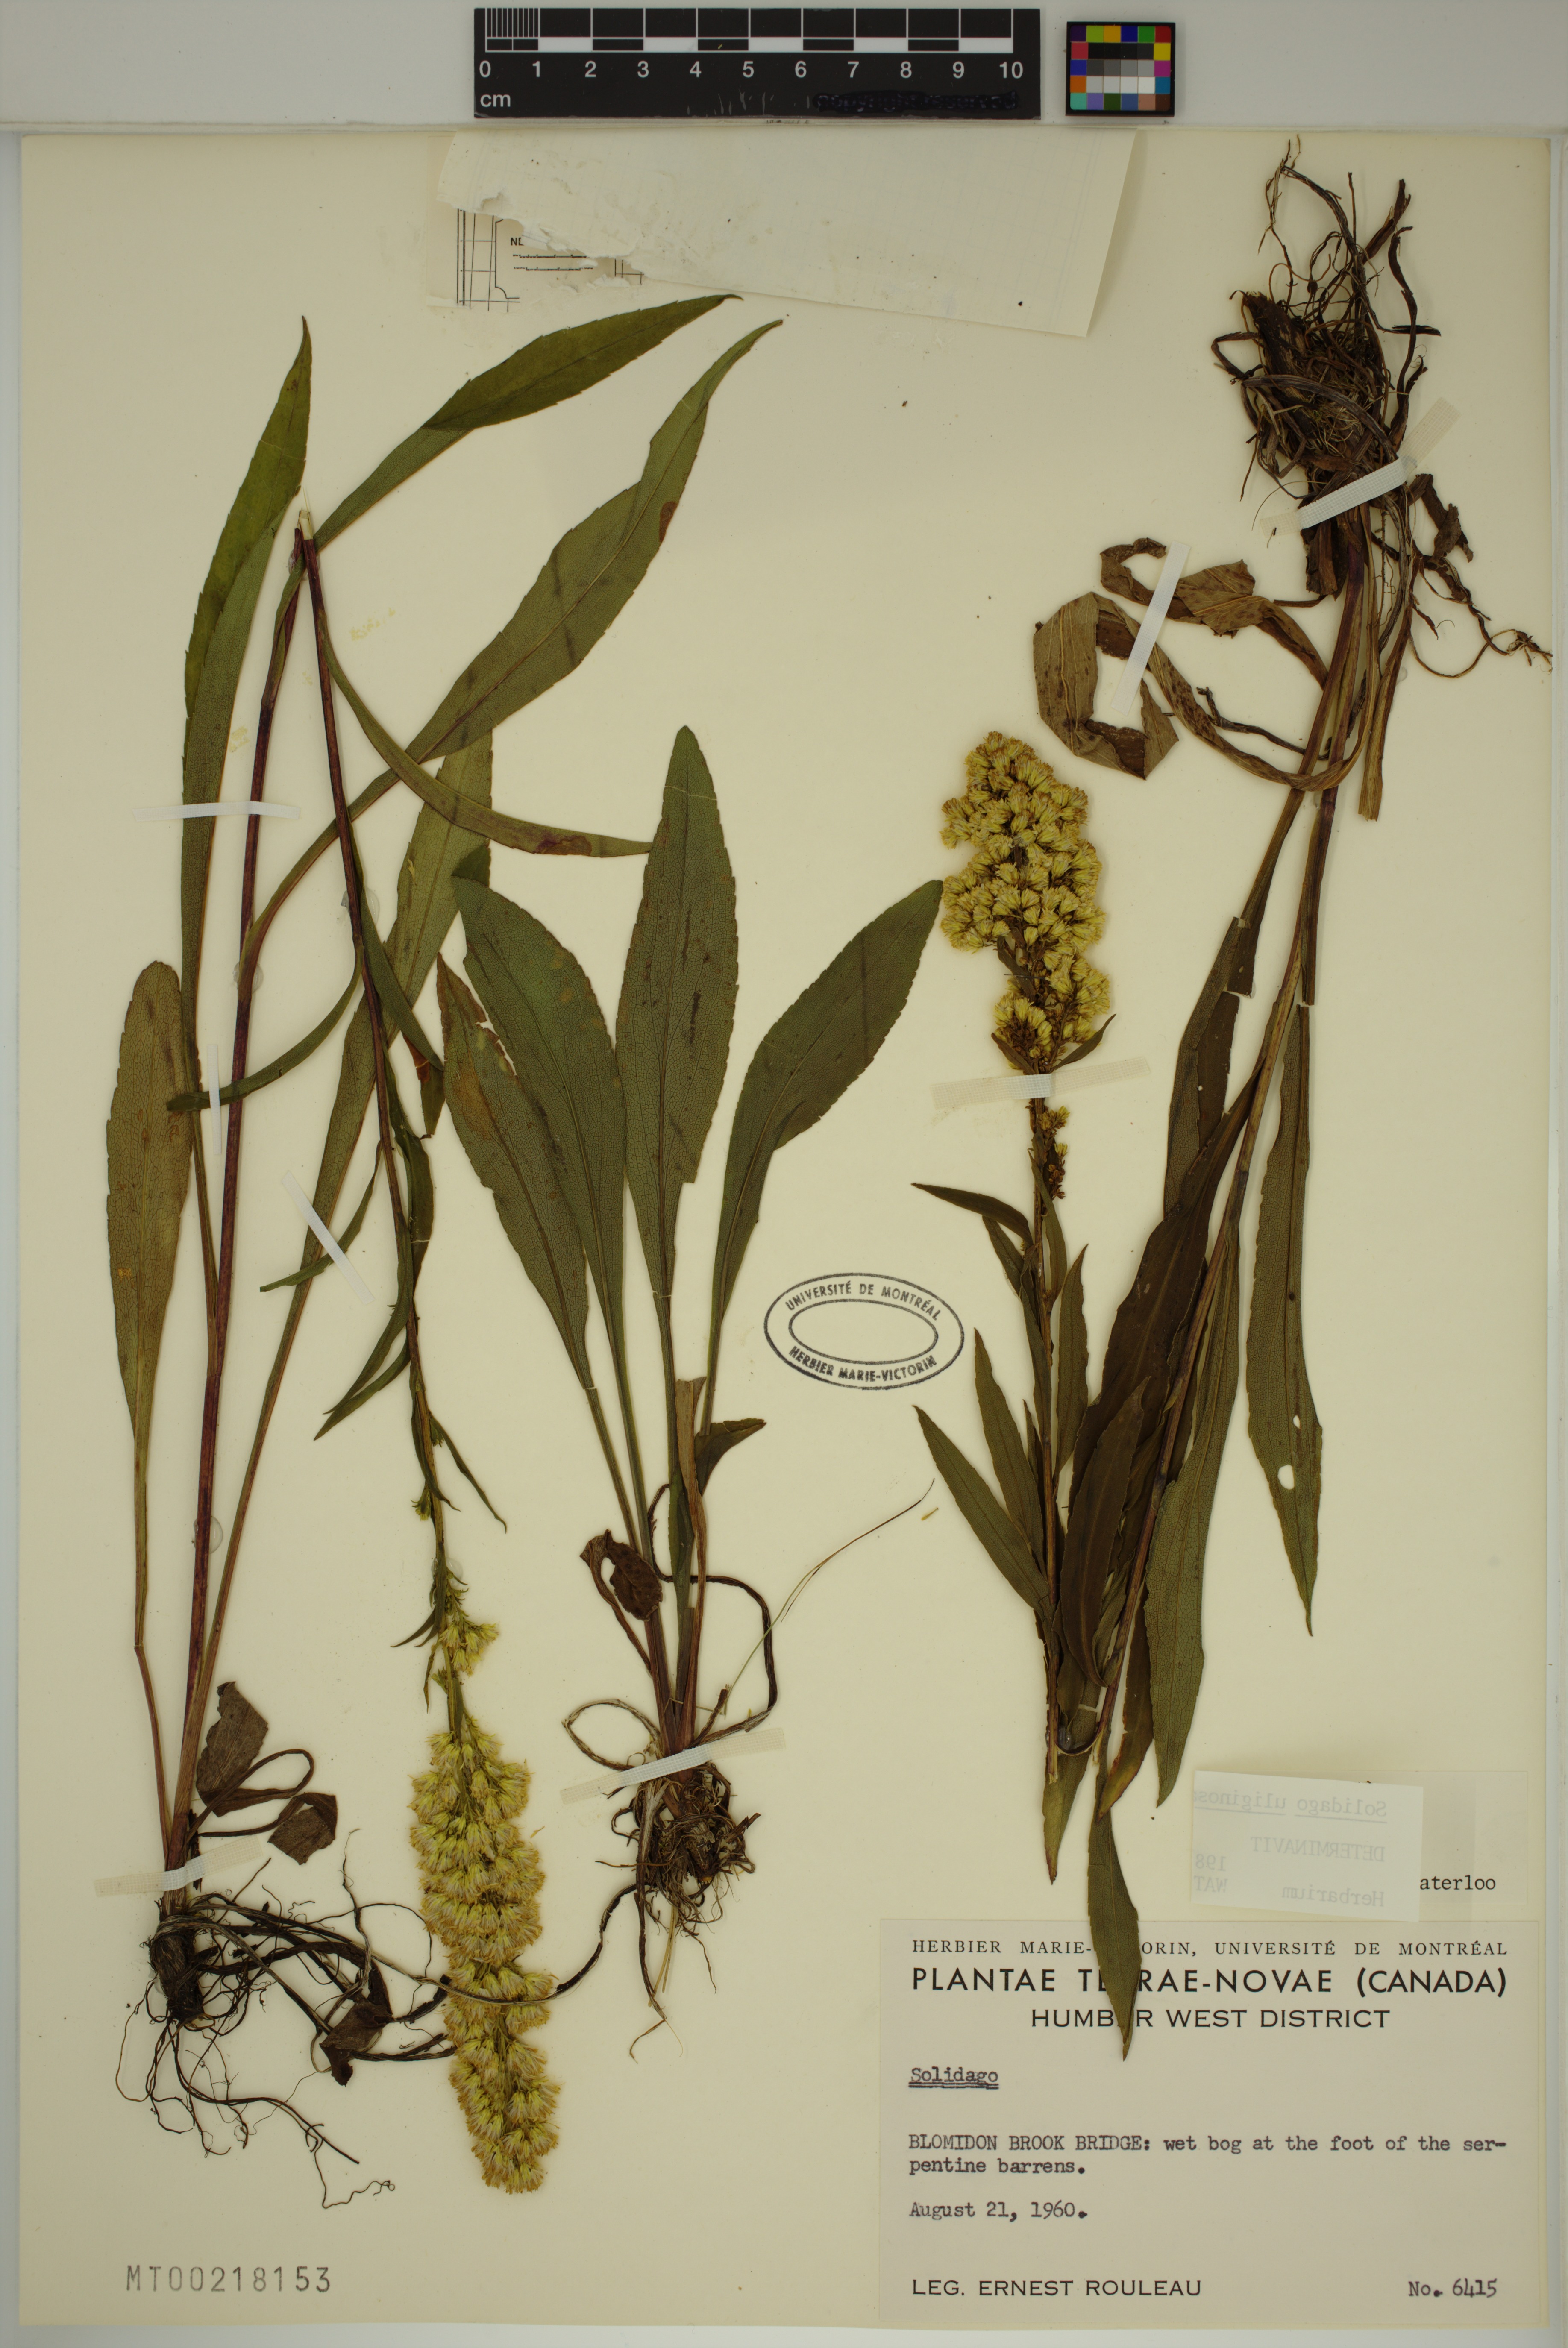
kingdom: Plantae
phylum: Tracheophyta
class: Magnoliopsida
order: Asterales
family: Asteraceae
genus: Solidago
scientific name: Solidago uliginosa
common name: Bog goldenrod
